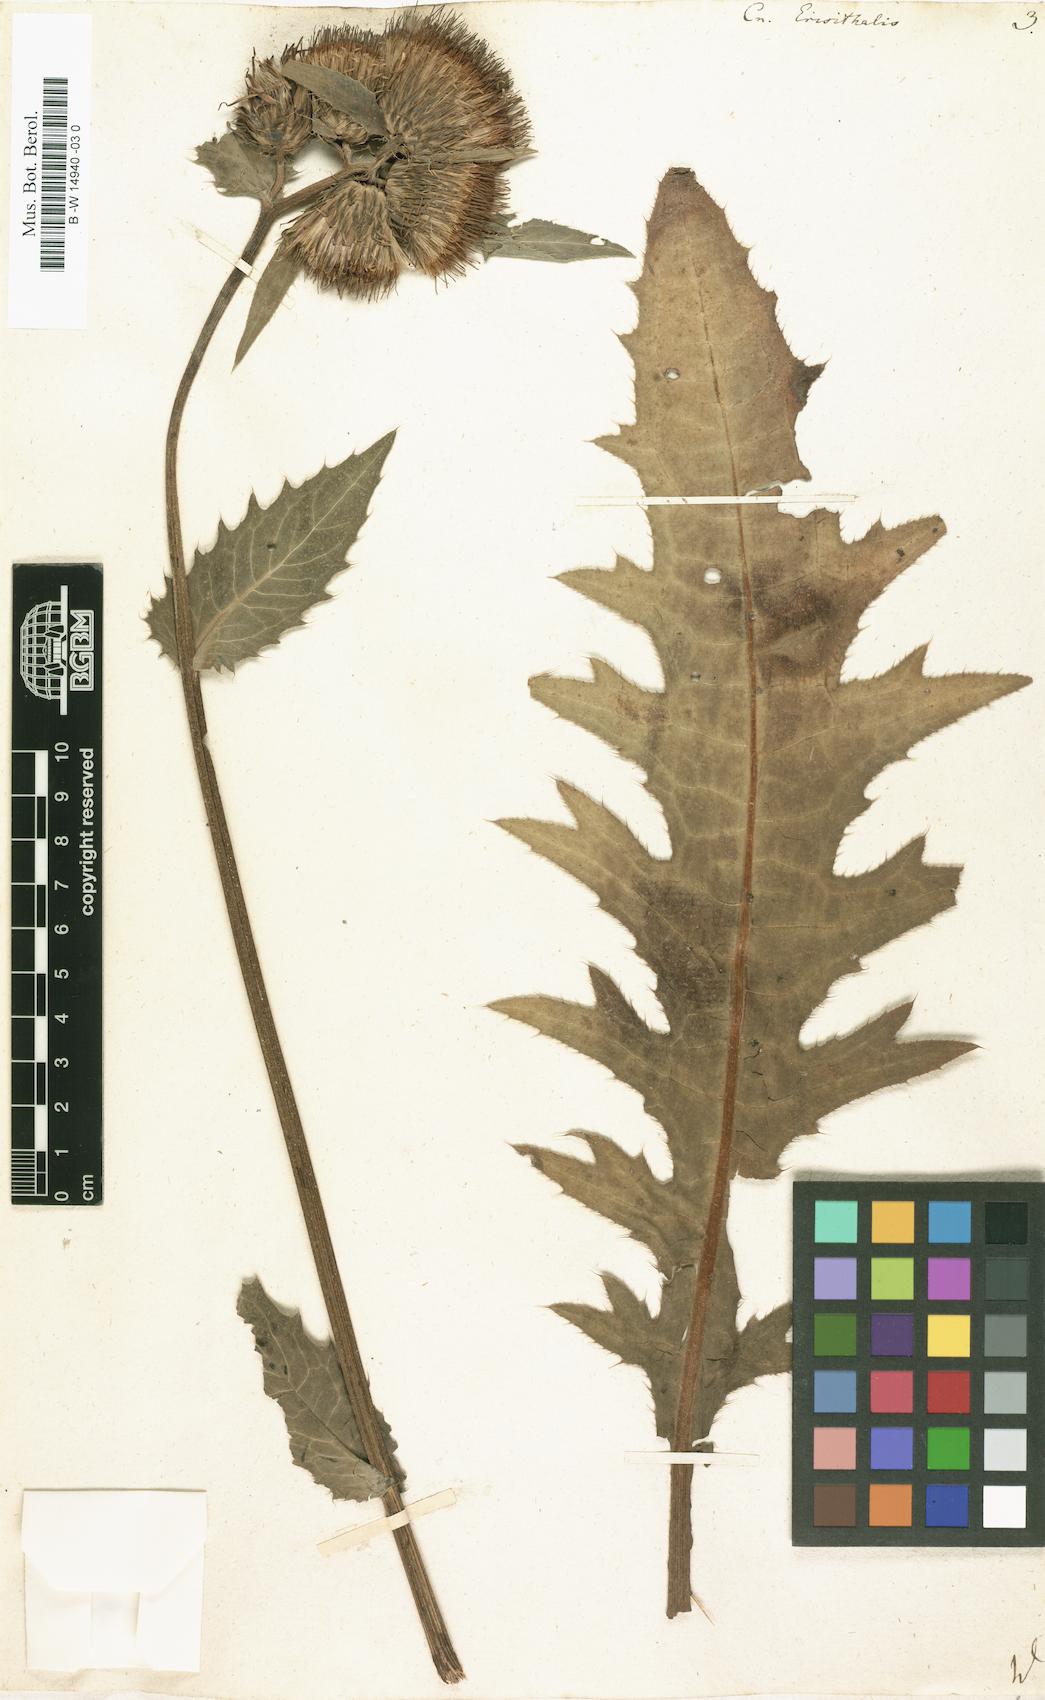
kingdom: Plantae
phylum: Tracheophyta
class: Magnoliopsida
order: Asterales
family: Asteraceae
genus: Cirsium
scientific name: Cirsium erisithales
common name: Yellow thistle
